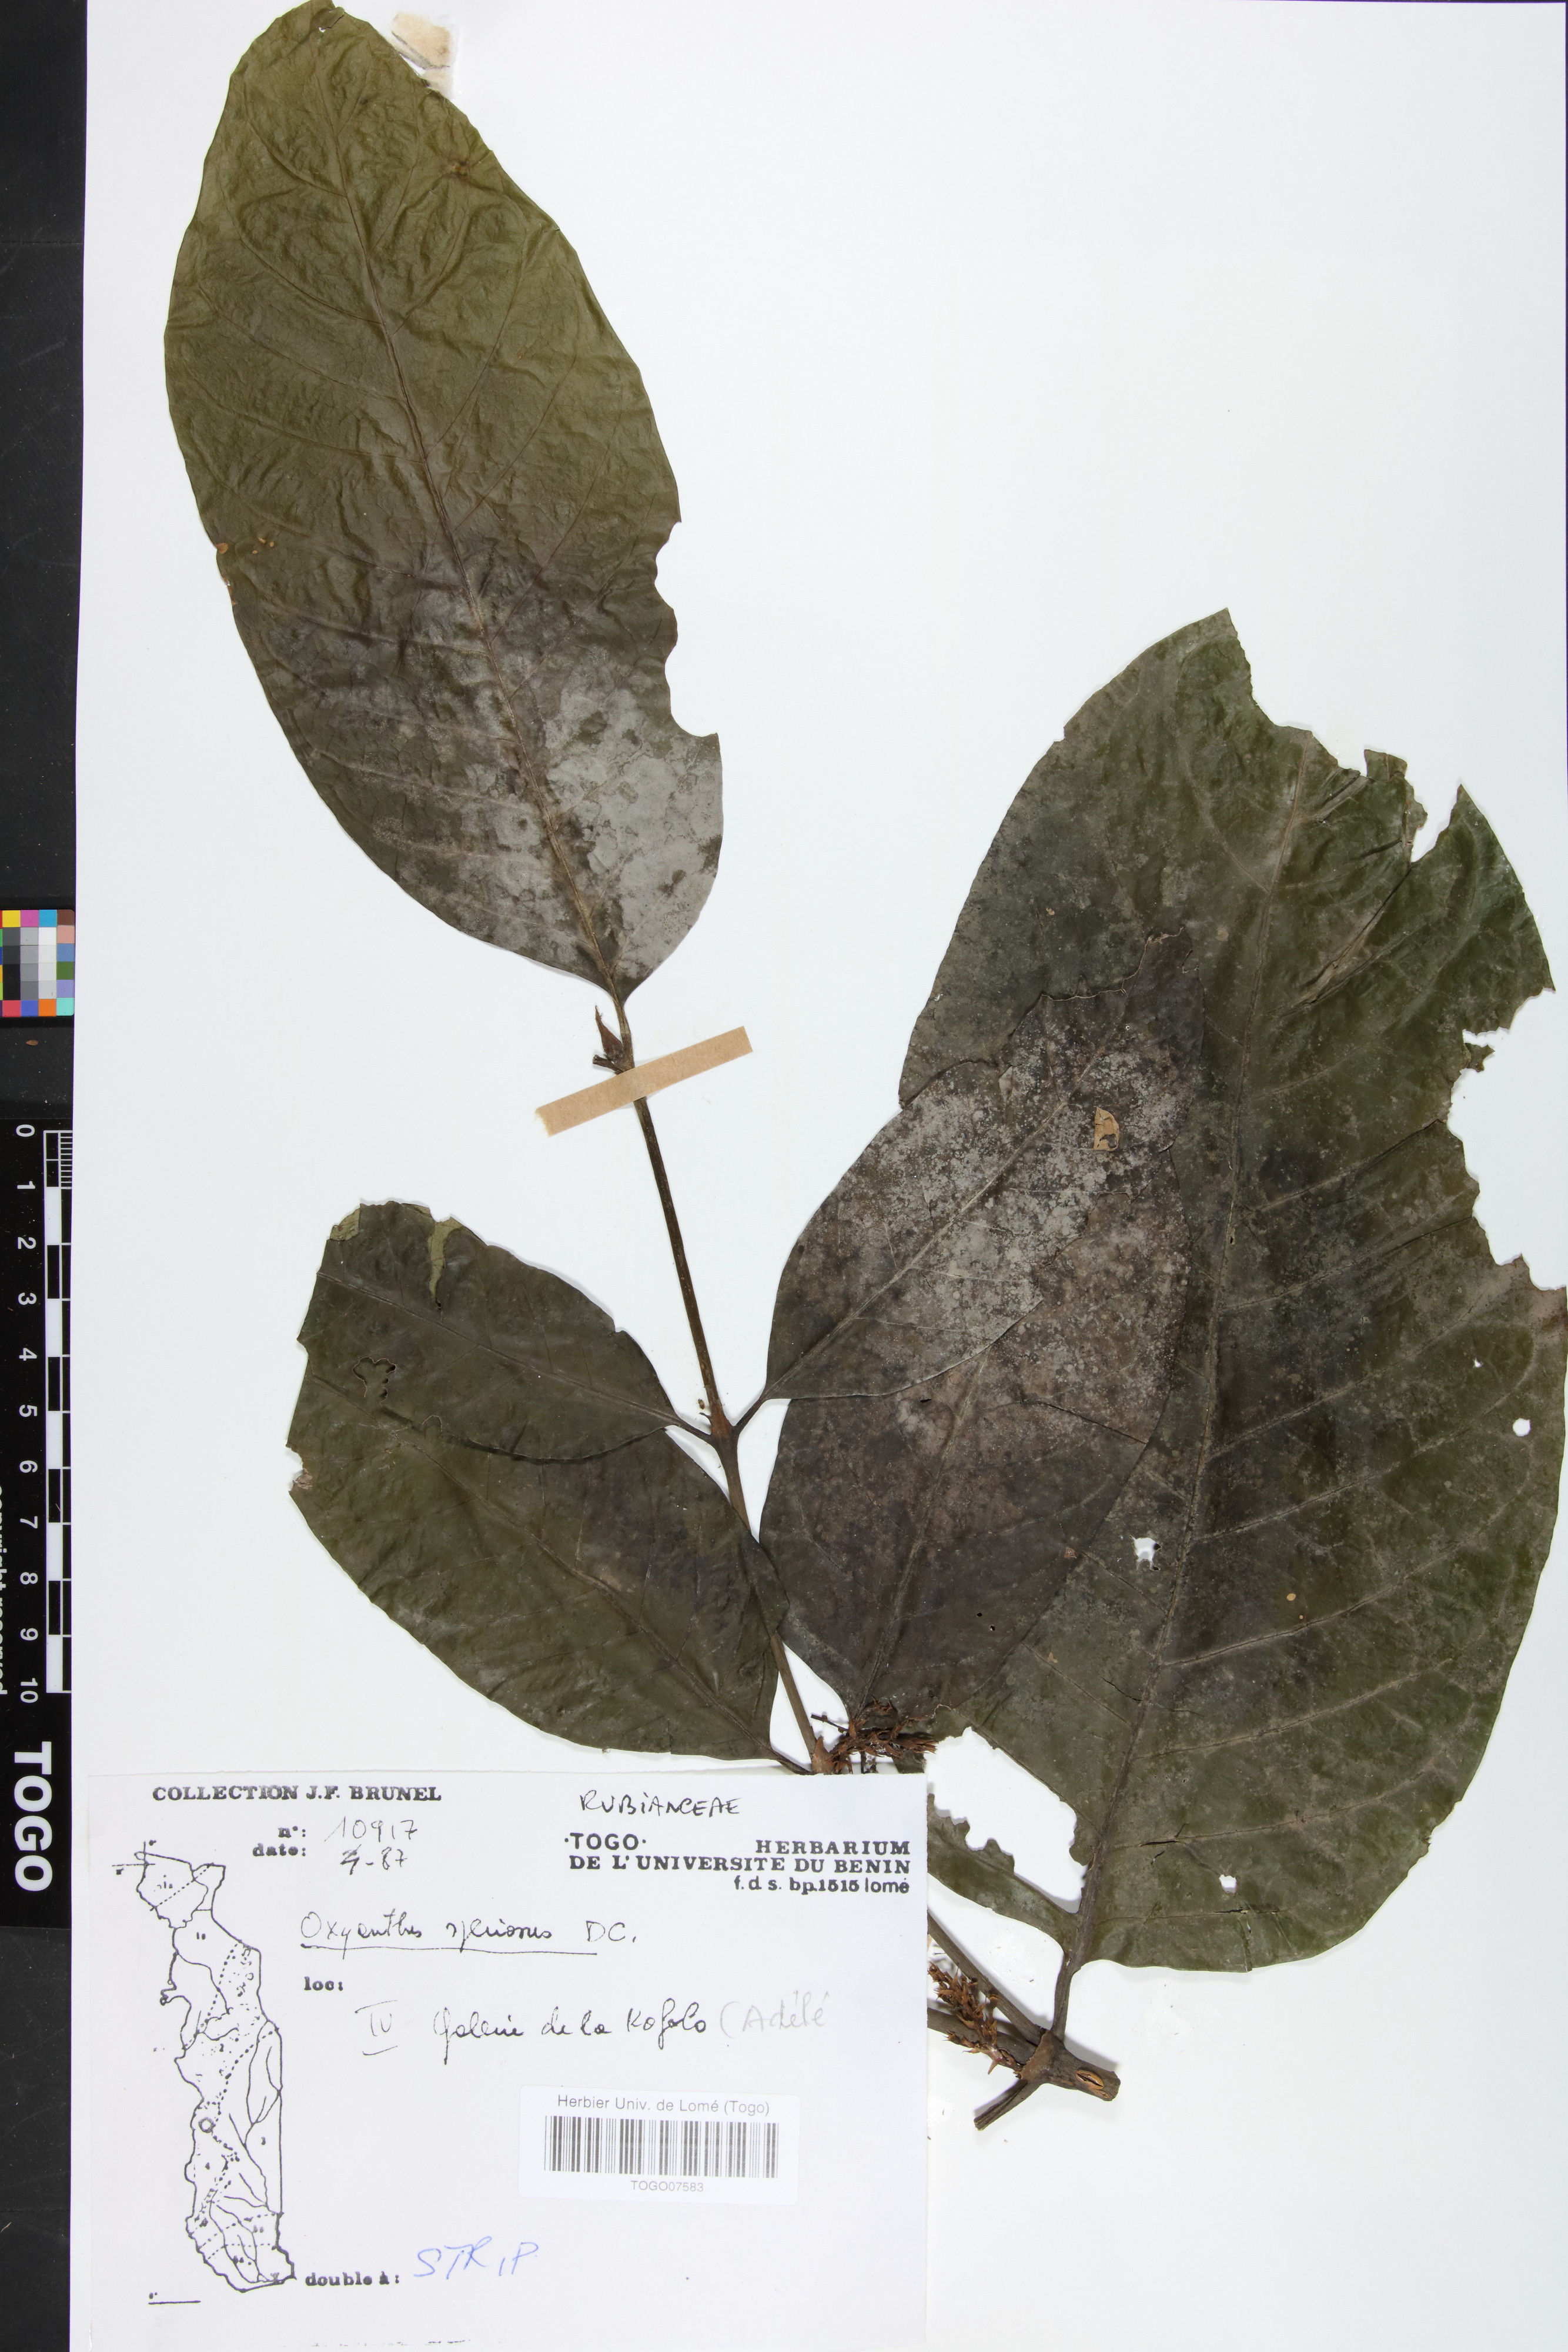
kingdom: Plantae
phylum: Tracheophyta
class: Magnoliopsida
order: Gentianales
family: Rubiaceae
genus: Oxyanthus
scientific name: Oxyanthus speciosus
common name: Whipstick loquat
